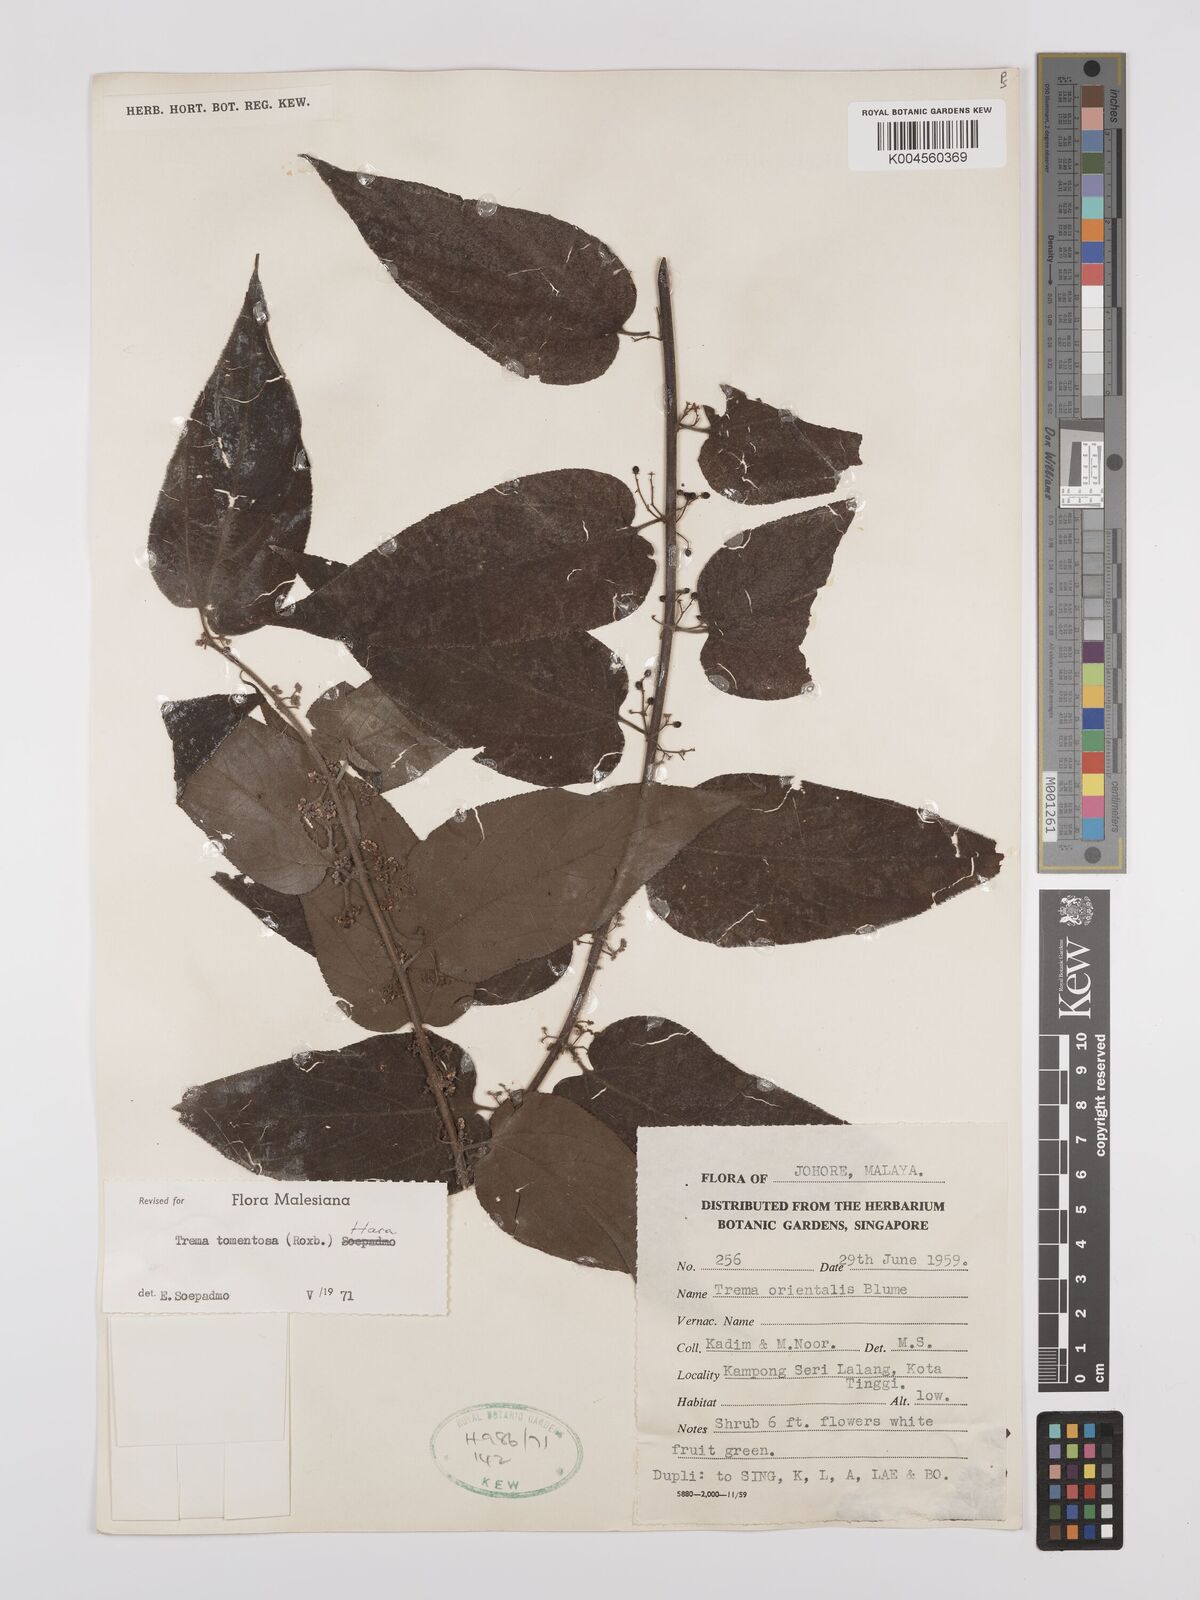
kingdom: Plantae
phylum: Tracheophyta
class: Magnoliopsida
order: Rosales
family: Cannabaceae
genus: Trema
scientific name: Trema tomentosum
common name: Peach-leaf-poisonbush
